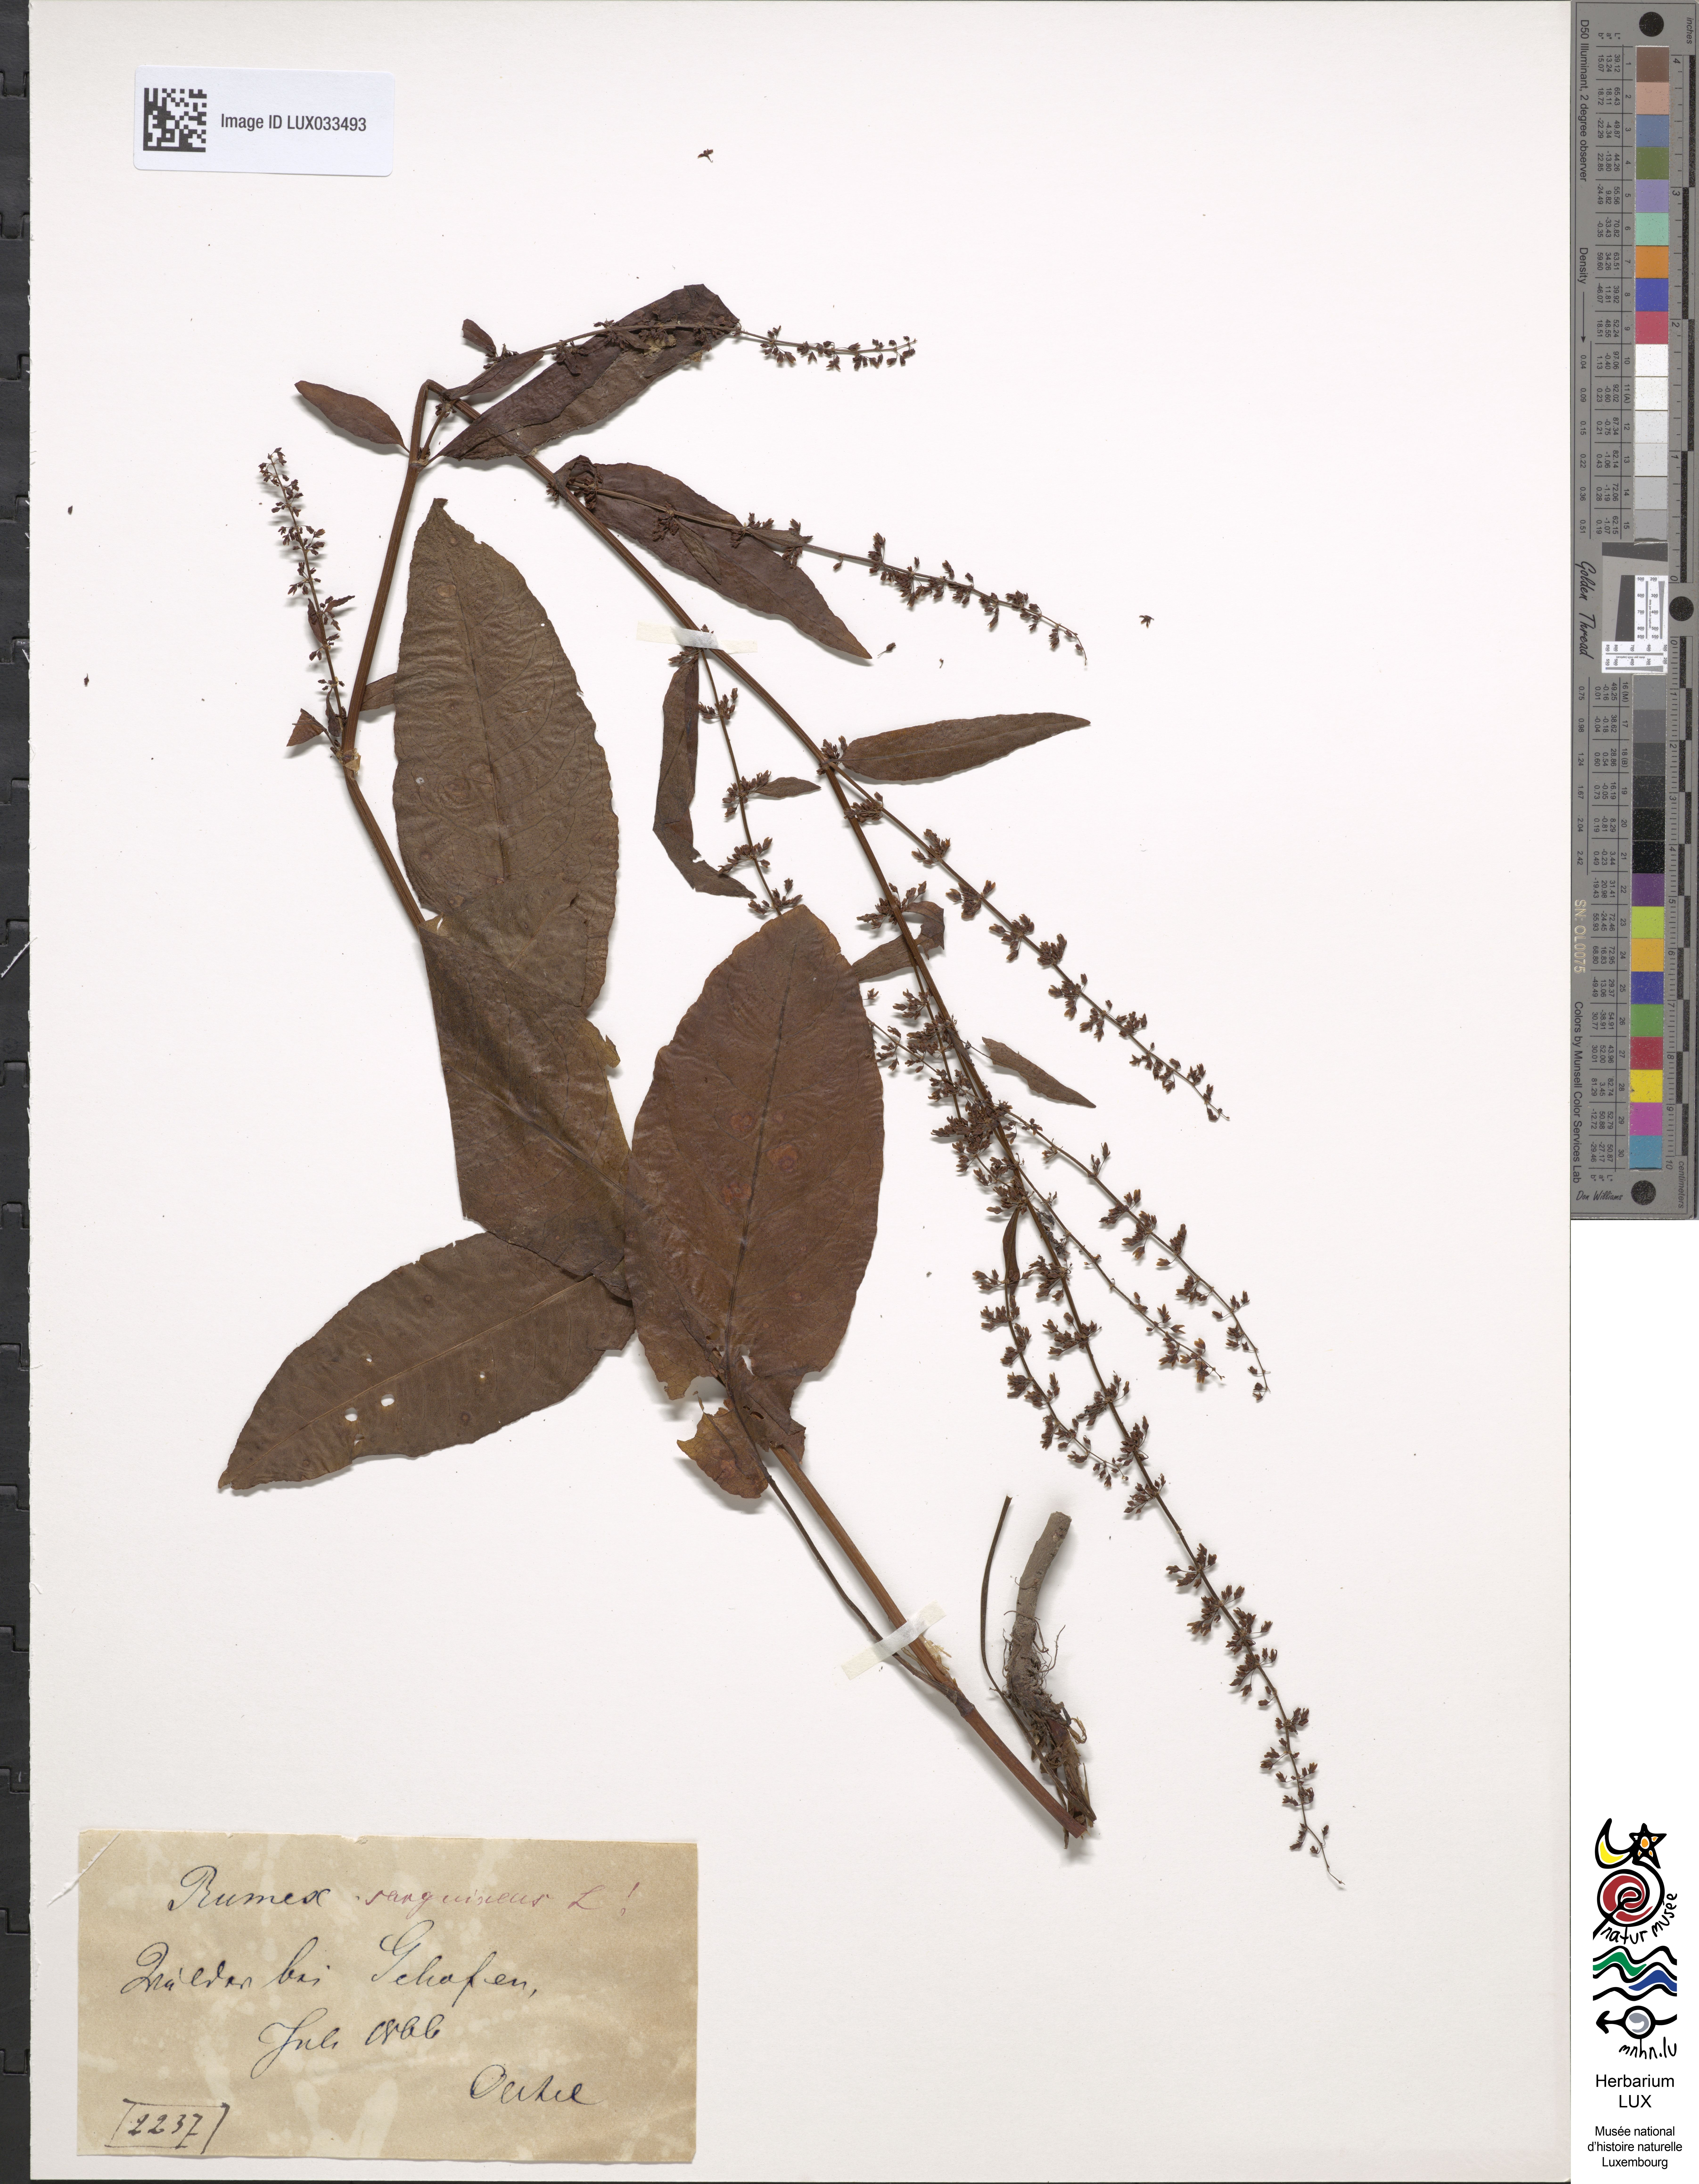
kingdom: Plantae
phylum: Tracheophyta
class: Magnoliopsida
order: Caryophyllales
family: Polygonaceae
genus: Rumex
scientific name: Rumex sanguineus
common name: Wood dock
